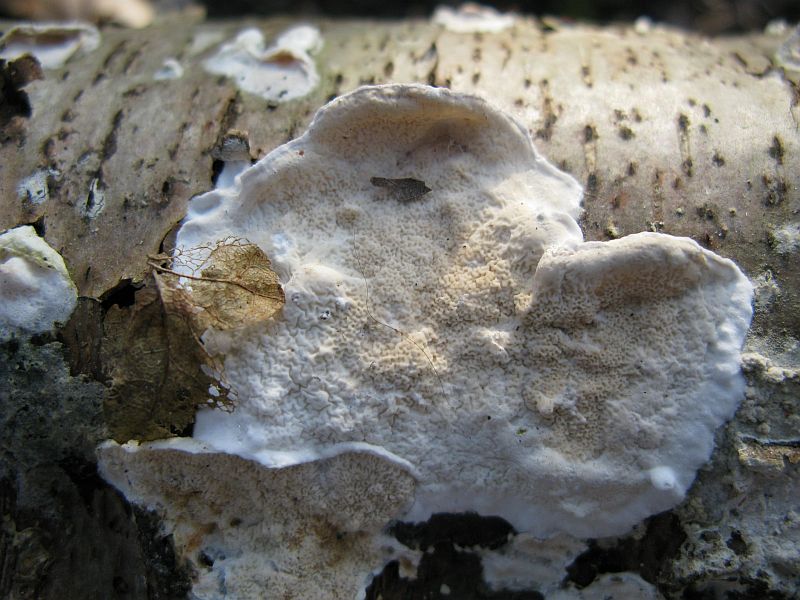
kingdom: Fungi
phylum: Basidiomycota
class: Agaricomycetes
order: Polyporales
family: Irpicaceae
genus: Byssomerulius
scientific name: Byssomerulius corium
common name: læder-åresvamp
